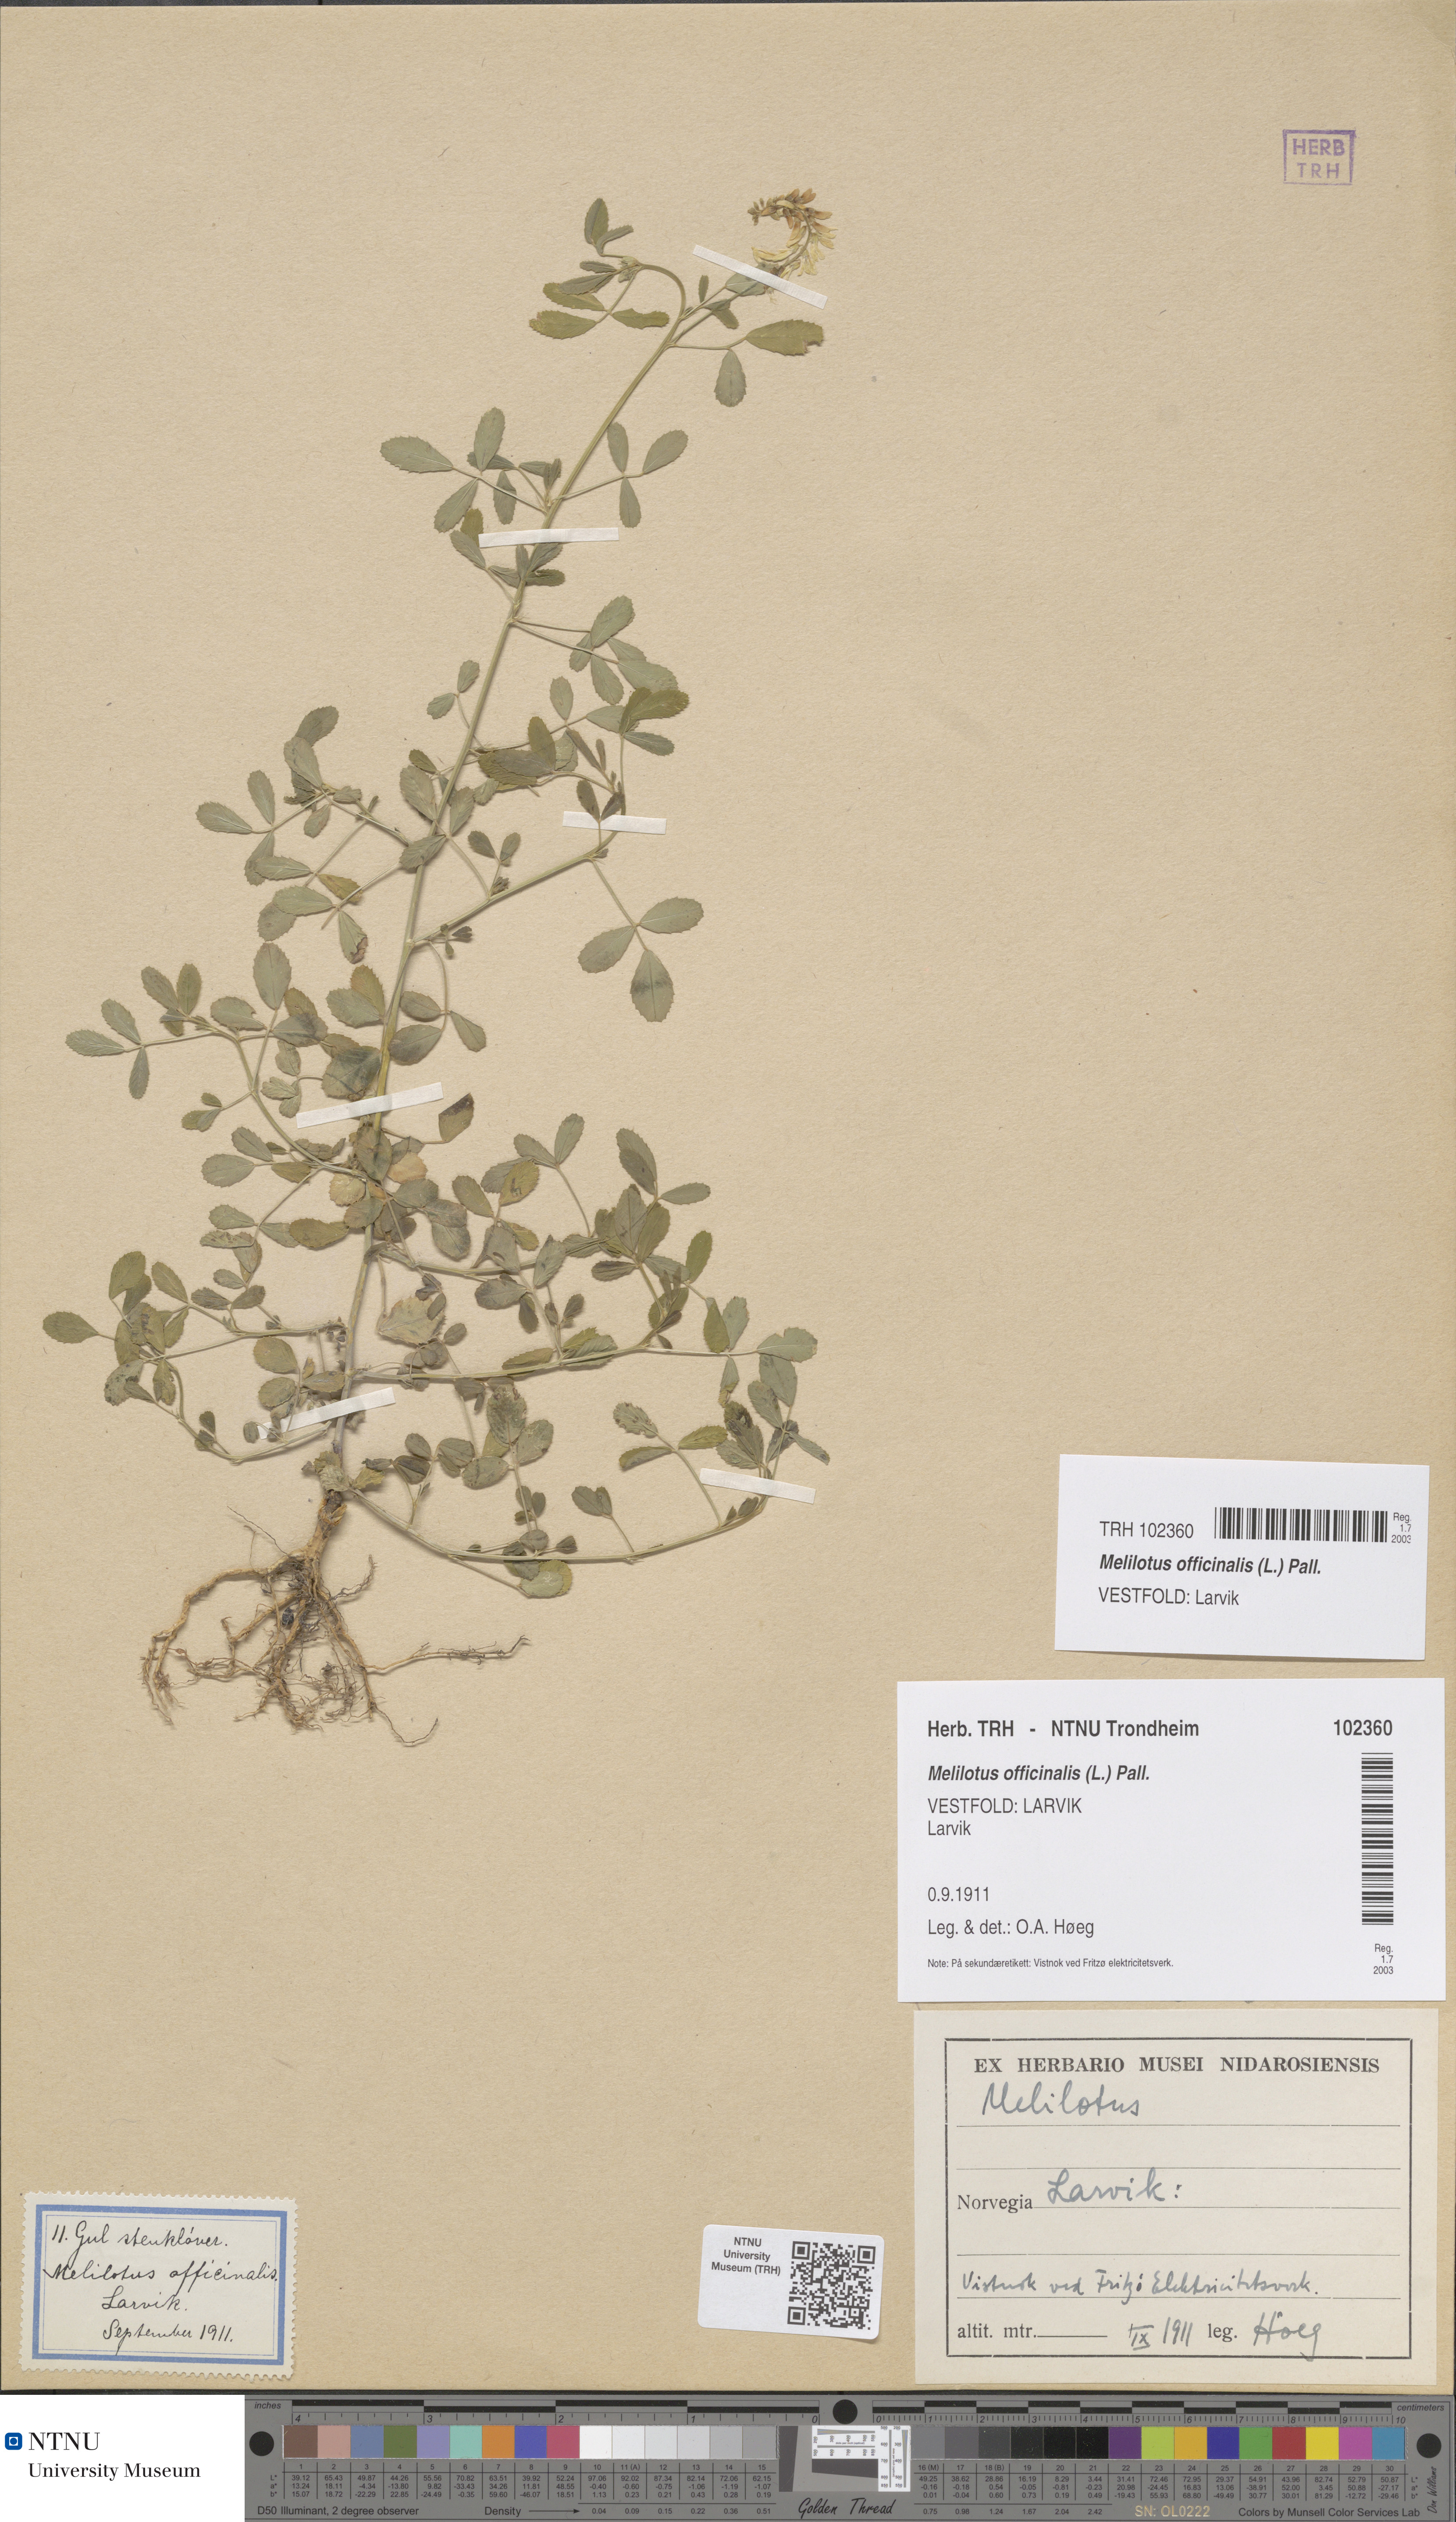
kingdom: Plantae
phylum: Tracheophyta
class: Magnoliopsida
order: Fabales
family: Fabaceae
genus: Melilotus
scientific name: Melilotus officinalis
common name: Sweetclover
